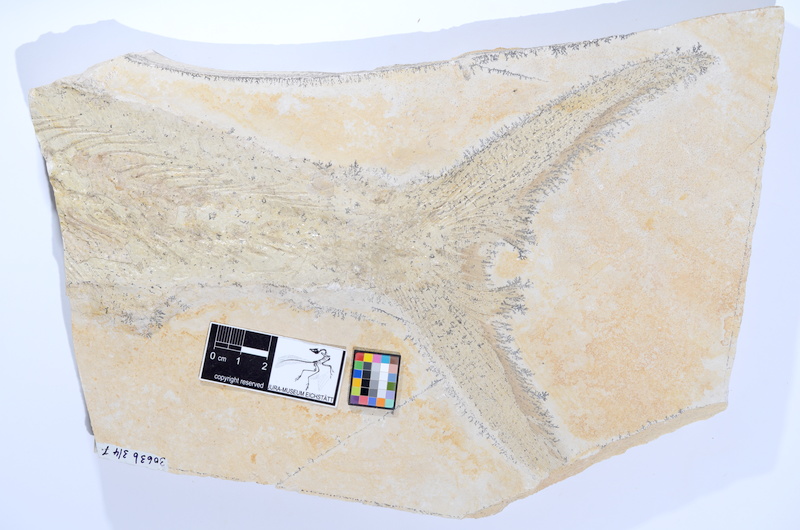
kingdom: Animalia
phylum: Chordata
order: Amiiformes
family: Caturidae
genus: Caturus
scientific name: Caturus furcatus
